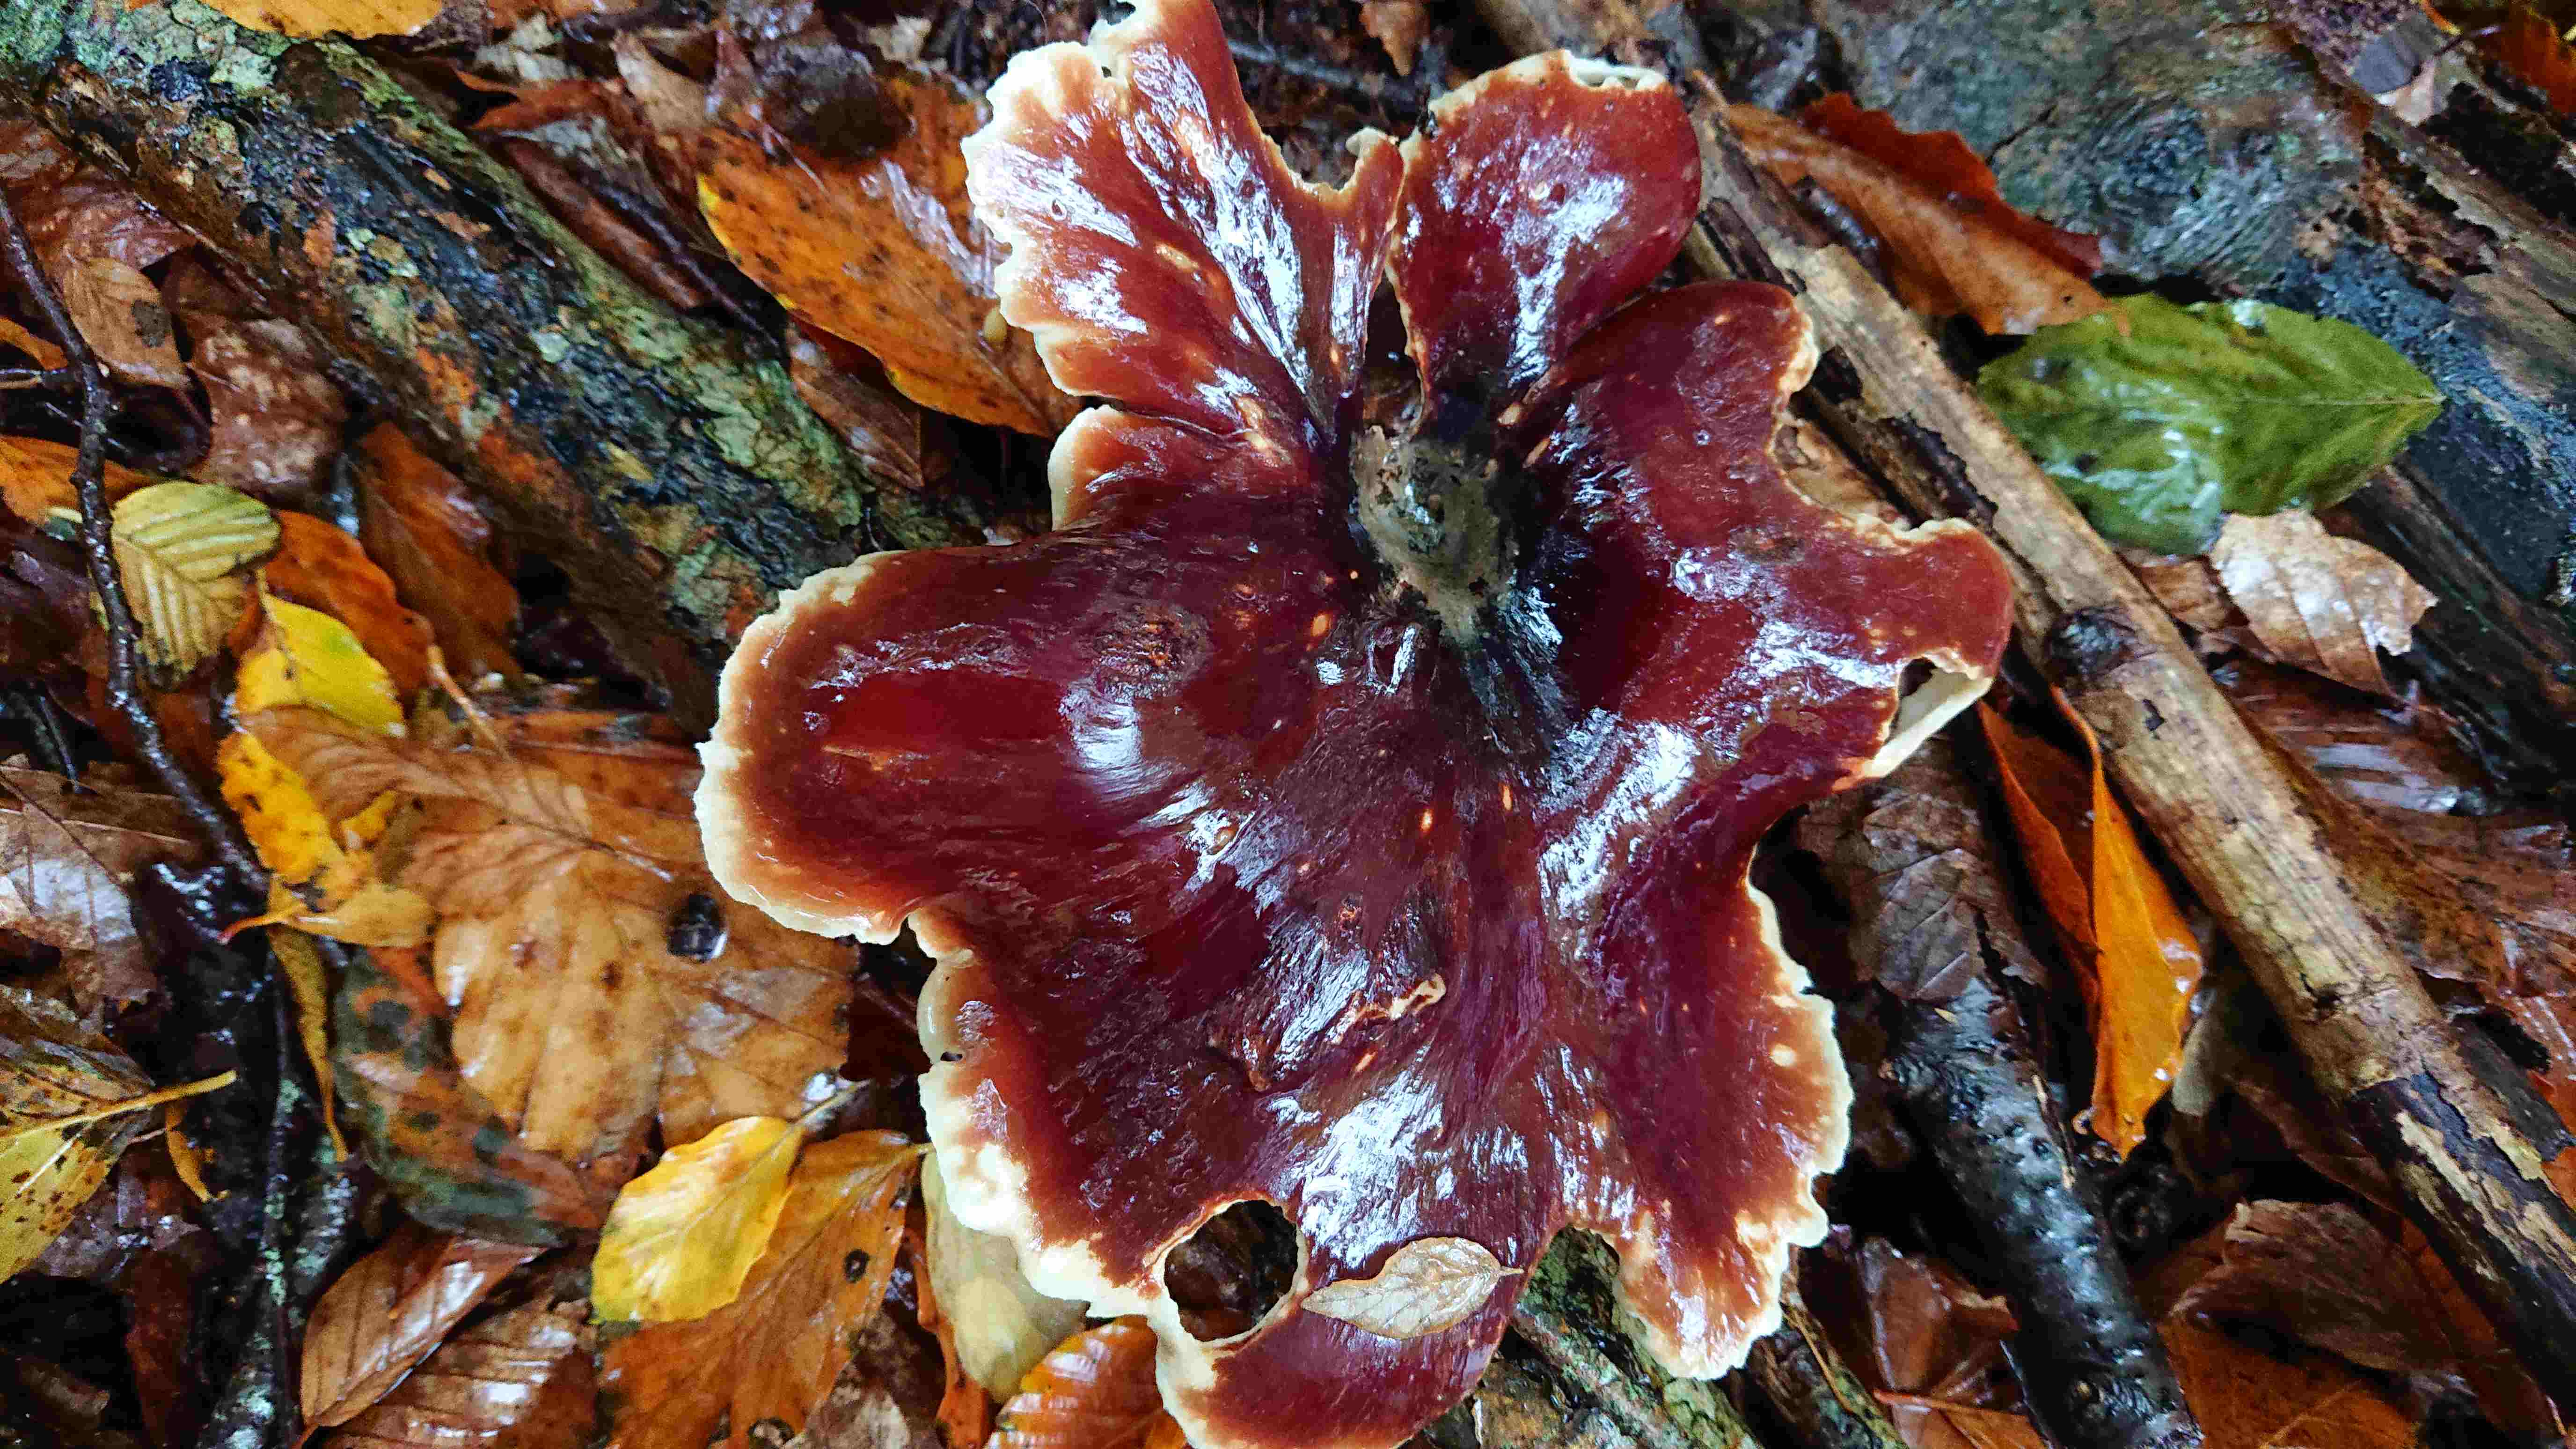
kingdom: Fungi
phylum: Basidiomycota
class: Agaricomycetes
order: Polyporales
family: Polyporaceae
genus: Picipes
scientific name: Picipes badius
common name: kastaniebrun stilkporesvamp
